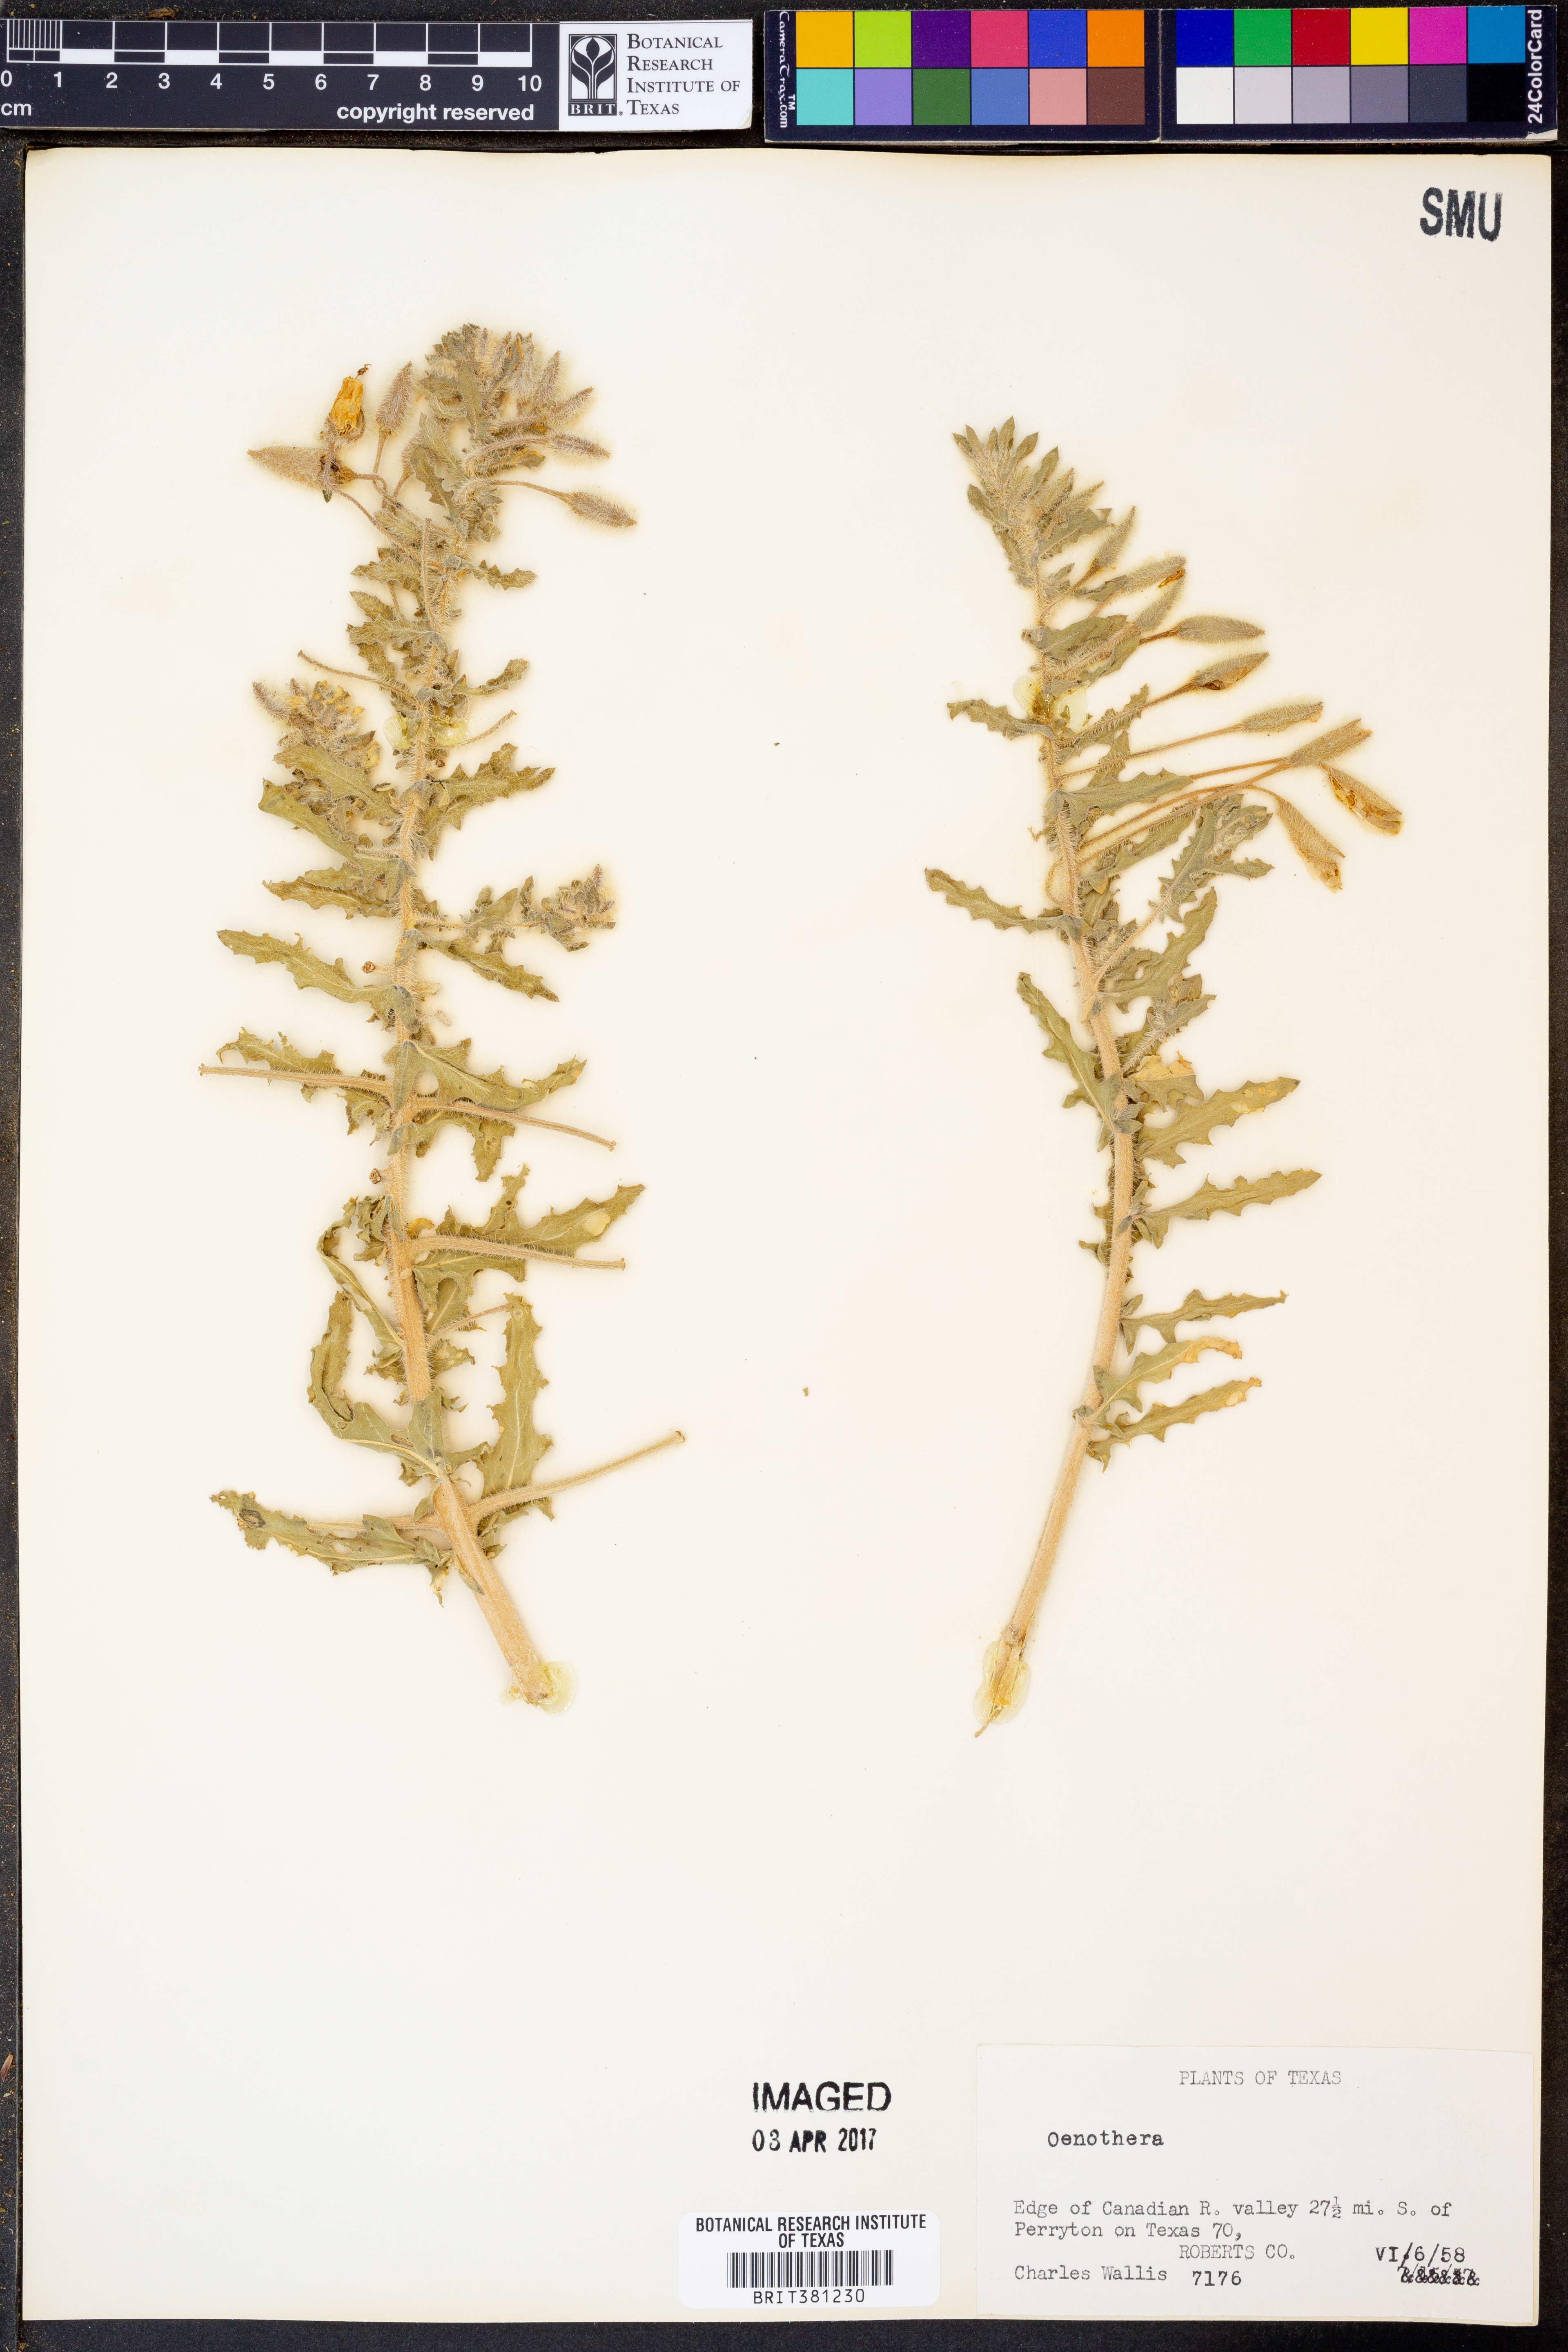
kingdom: Plantae
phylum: Tracheophyta
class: Magnoliopsida
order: Myrtales
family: Onagraceae
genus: Oenothera
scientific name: Oenothera
